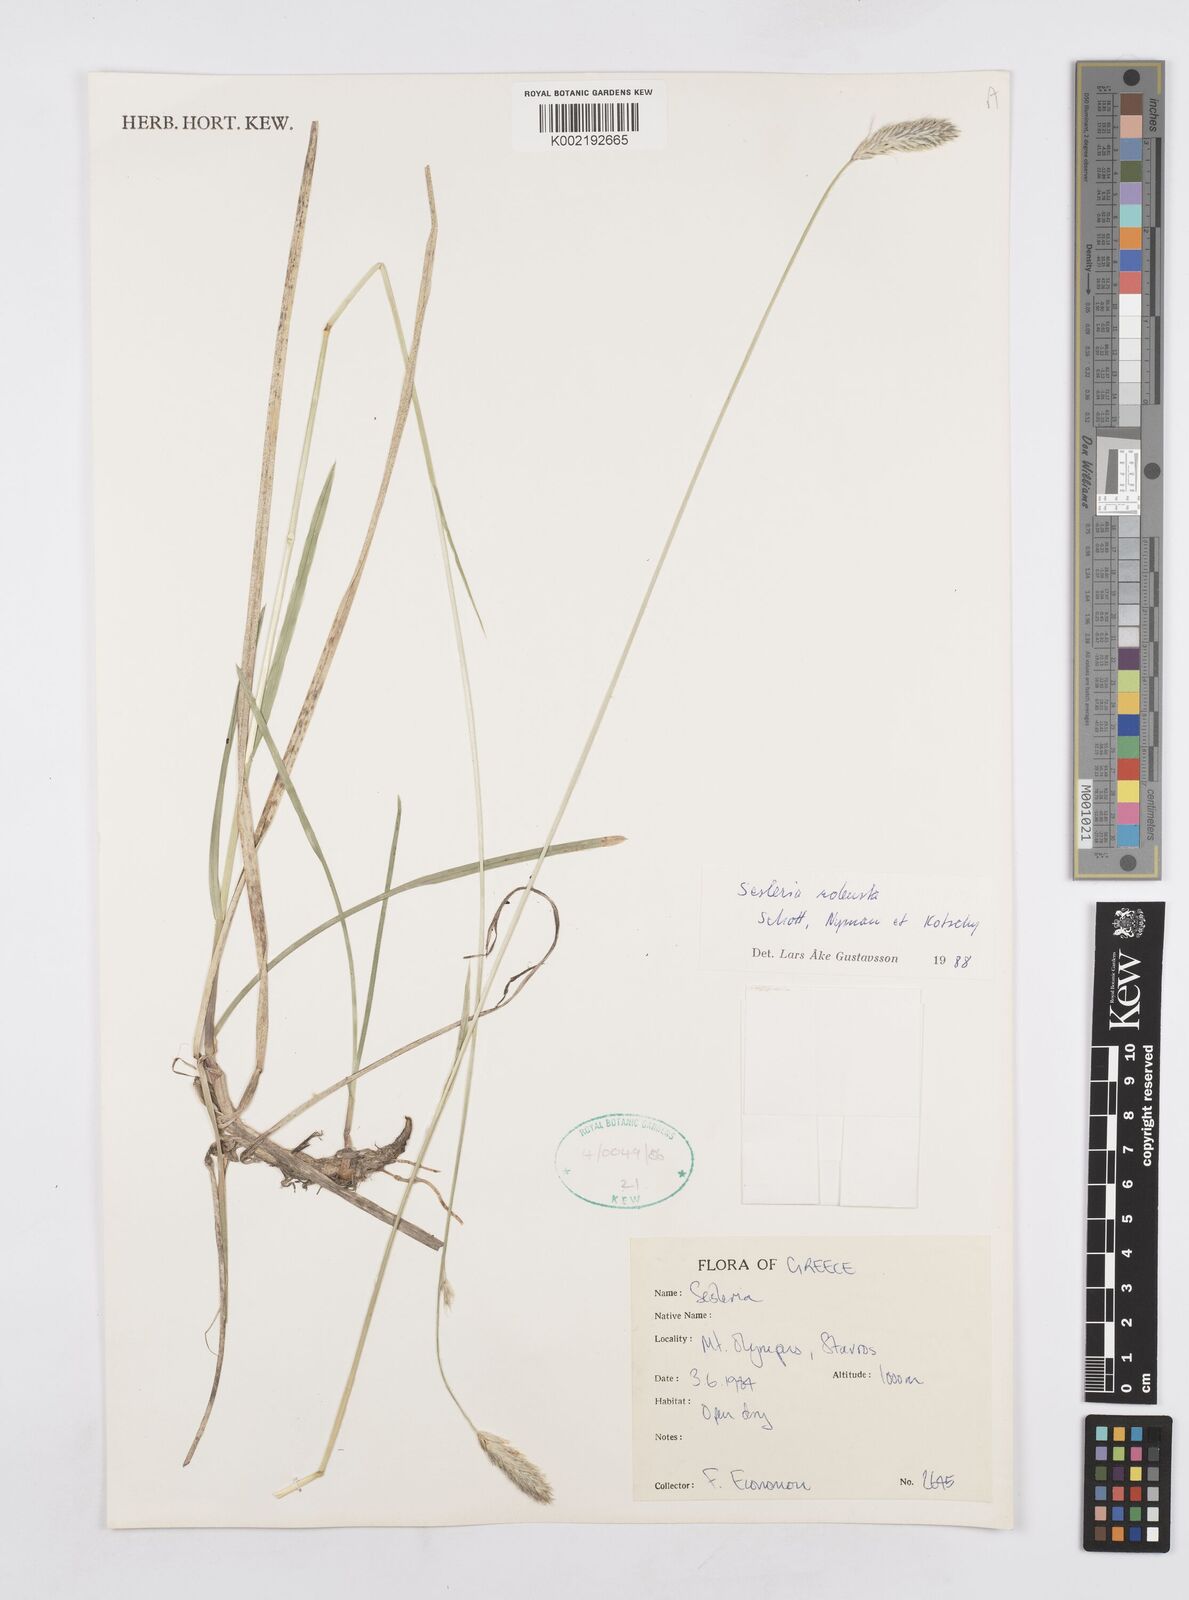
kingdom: Plantae
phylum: Tracheophyta
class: Liliopsida
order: Poales
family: Poaceae
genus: Sesleria
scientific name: Sesleria robusta
